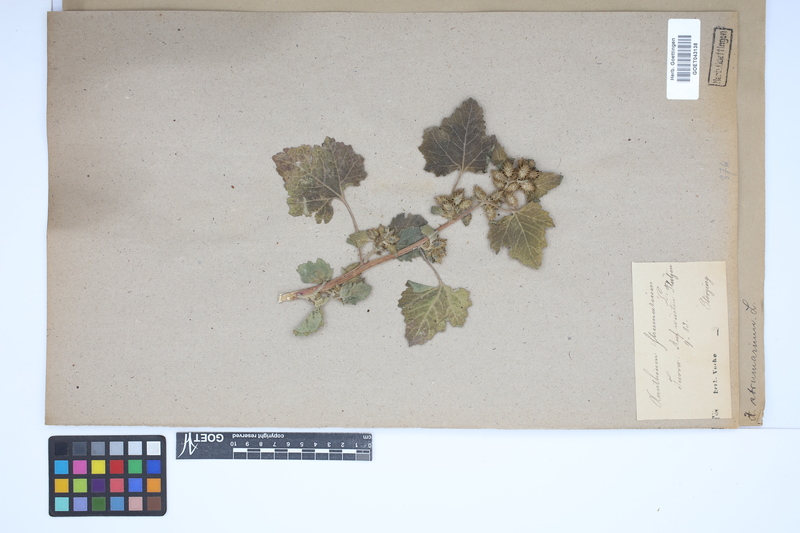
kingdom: Plantae
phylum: Tracheophyta
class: Magnoliopsida
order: Asterales
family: Asteraceae
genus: Xanthium
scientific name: Xanthium strumarium
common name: Rough cocklebur
